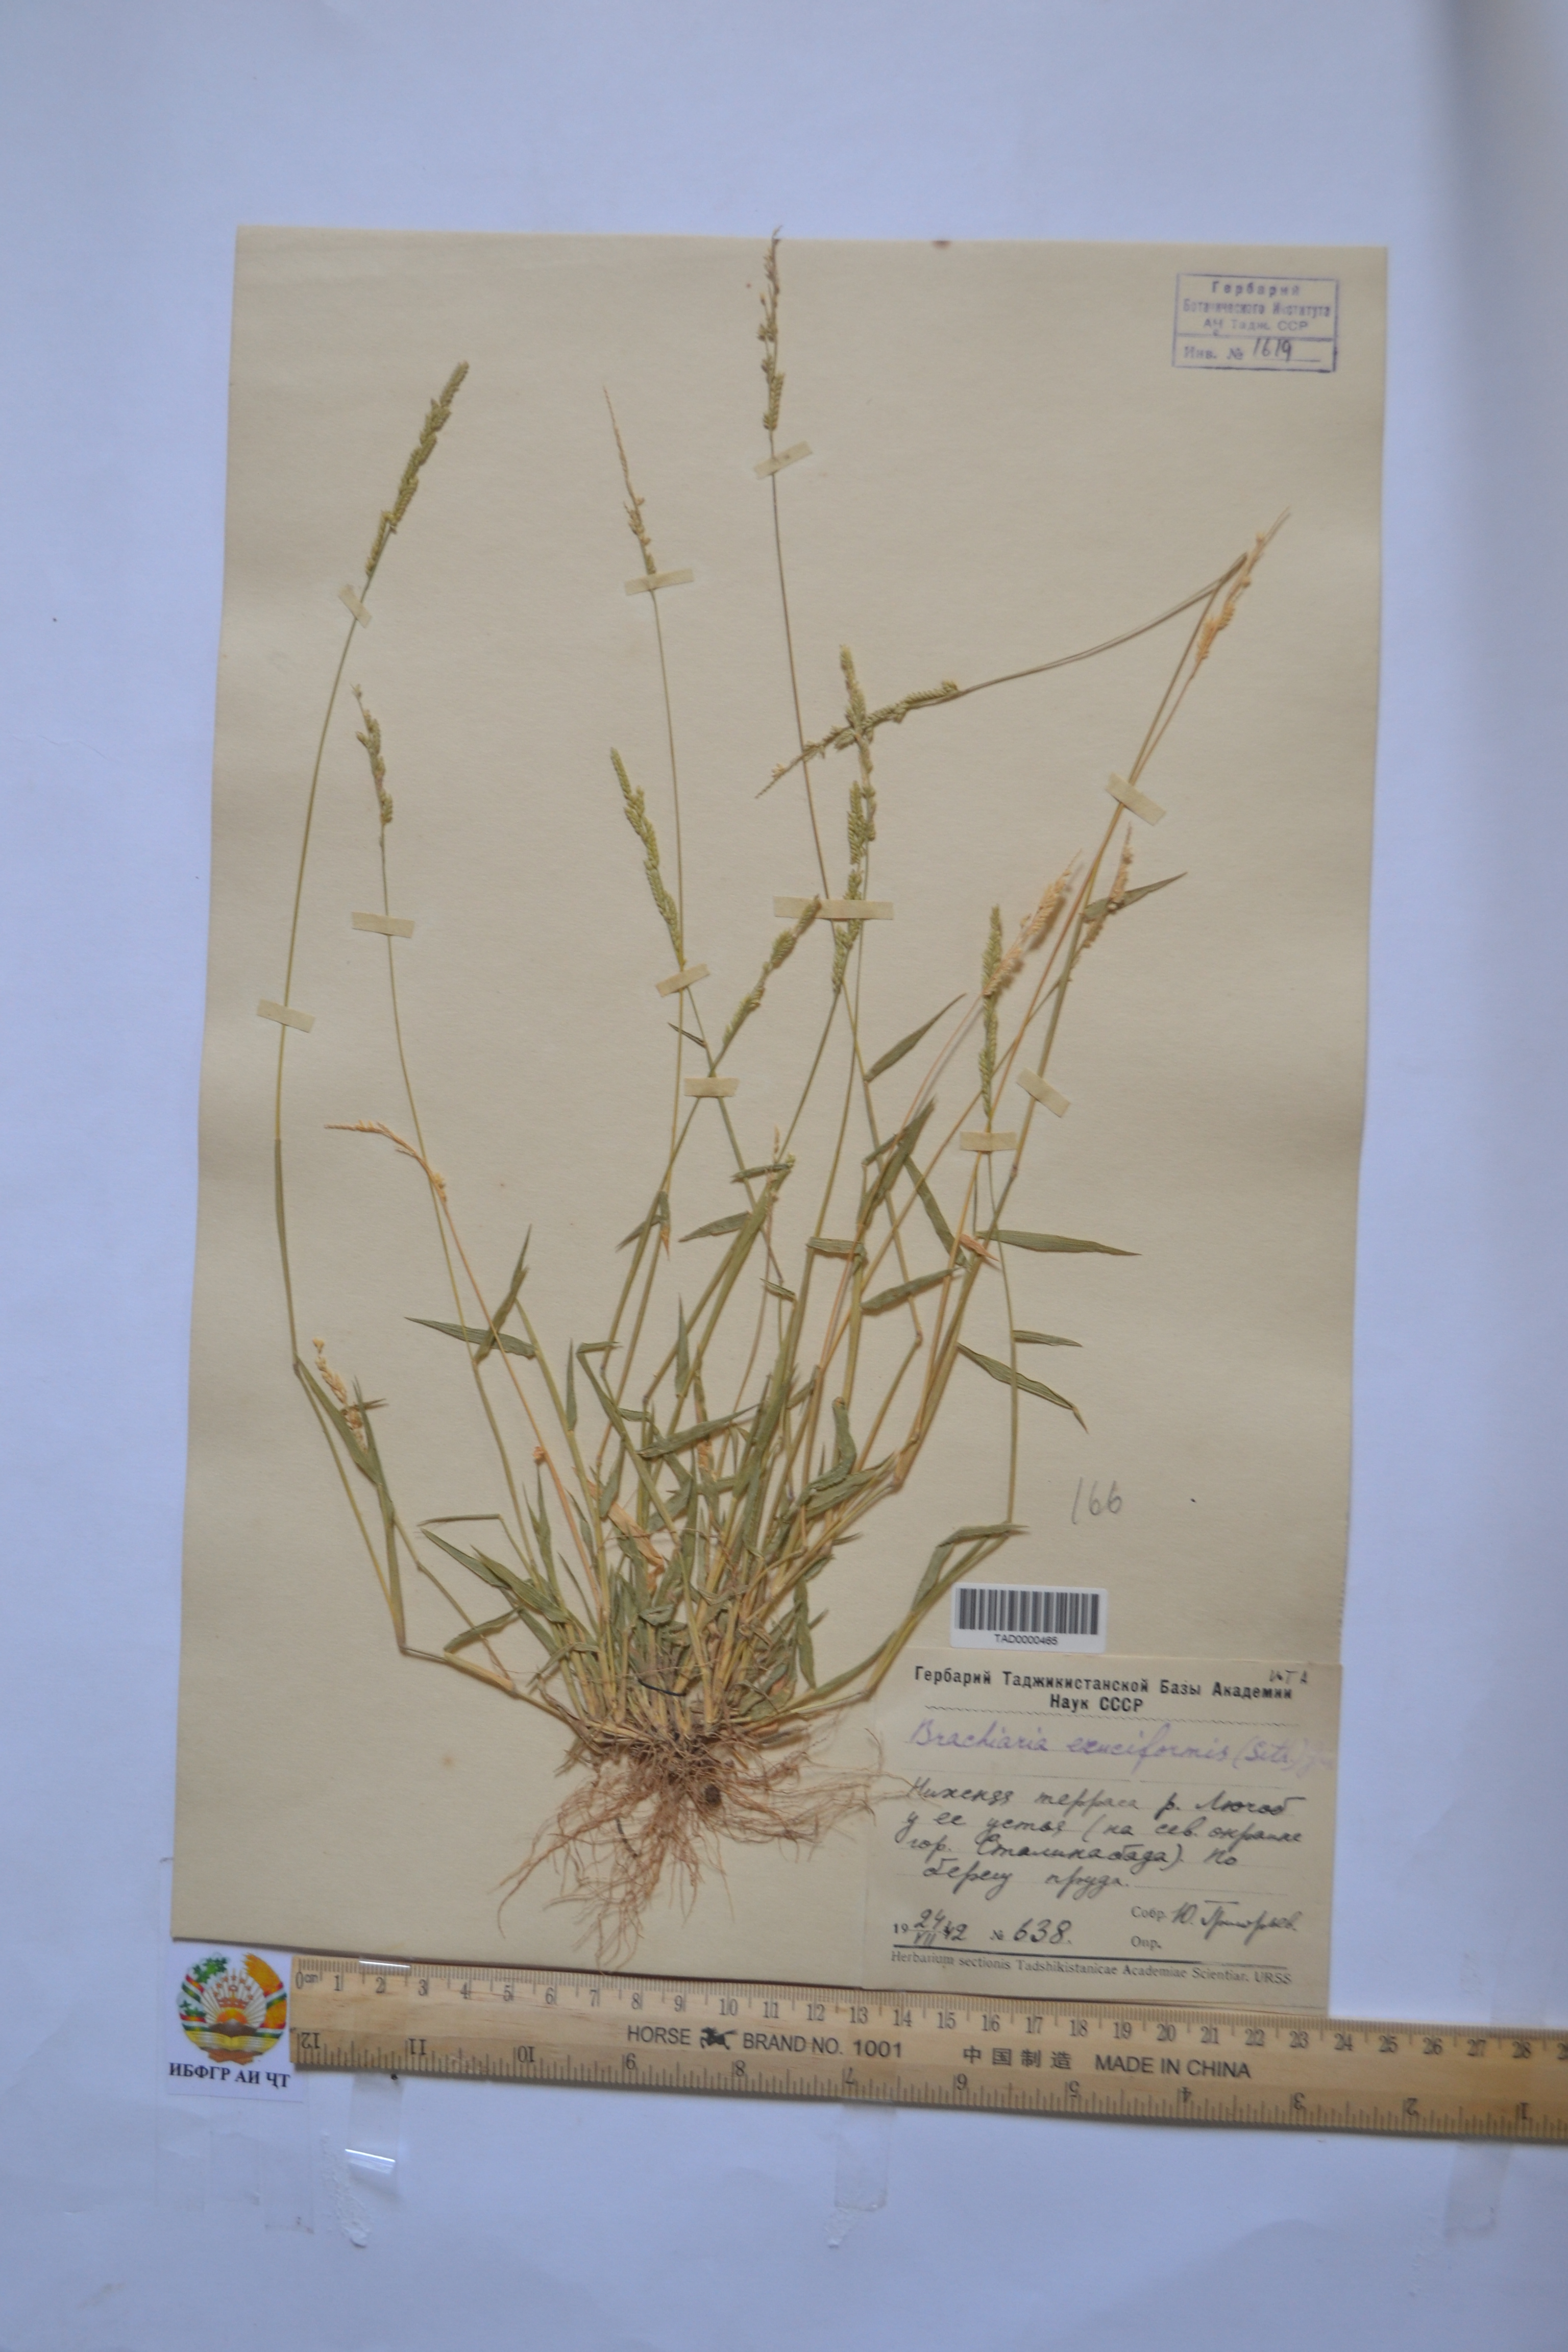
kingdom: Plantae
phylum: Tracheophyta
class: Liliopsida
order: Poales
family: Poaceae
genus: Moorochloa
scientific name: Moorochloa eruciformis
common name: Sweet signalgrass
